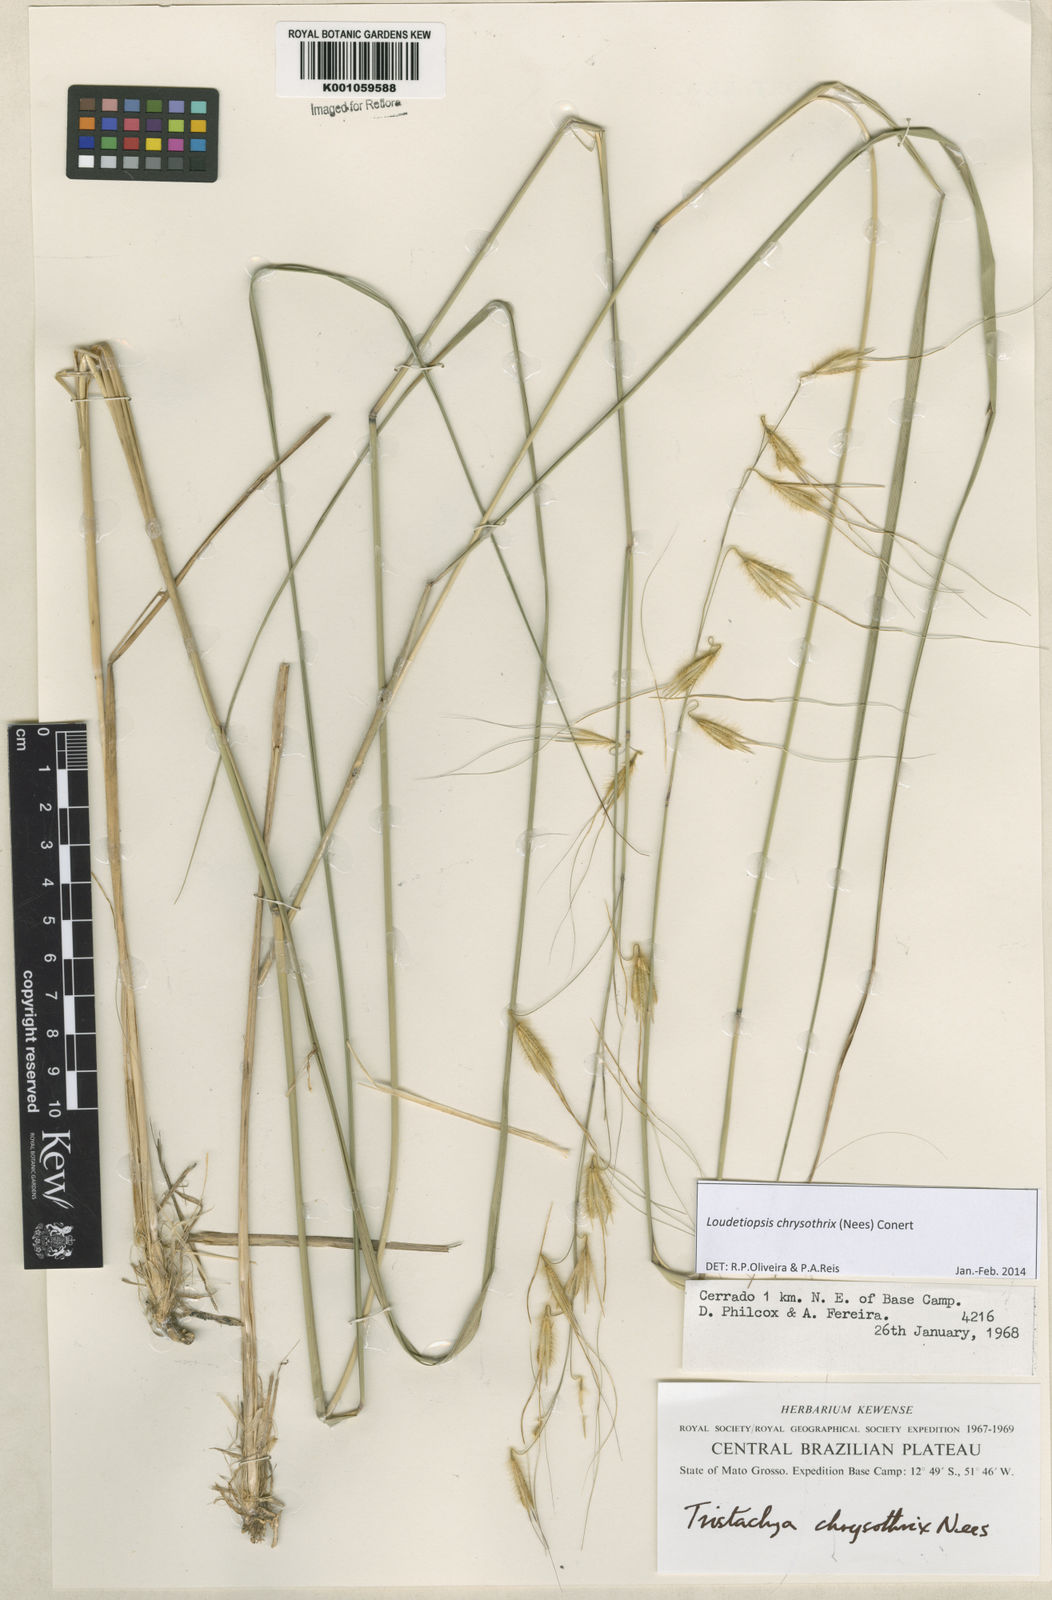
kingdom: Plantae
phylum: Tracheophyta
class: Liliopsida
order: Poales
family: Poaceae
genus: Loudetiopsis
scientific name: Loudetiopsis chrysothrix
